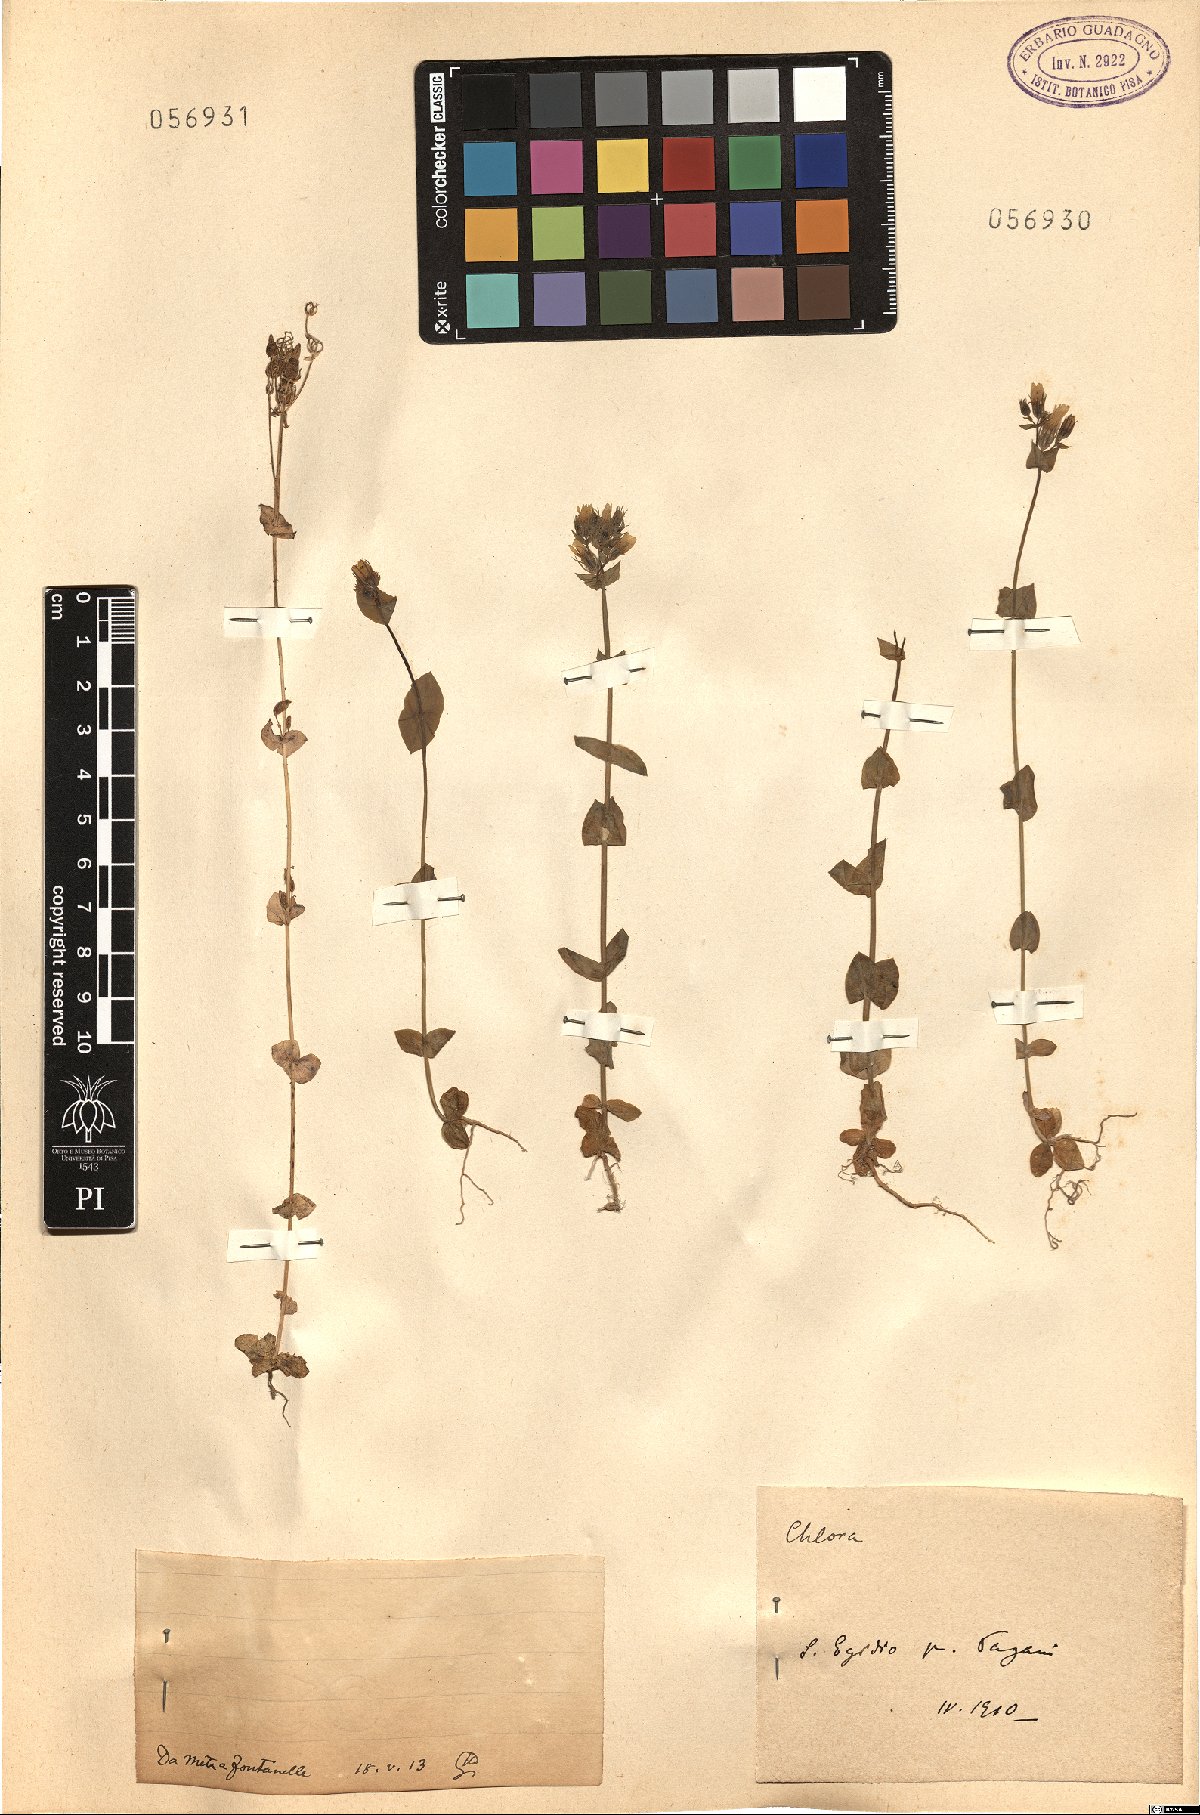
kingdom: Plantae
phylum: Tracheophyta
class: Magnoliopsida
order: Gentianales
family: Gentianaceae
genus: Blackstonia
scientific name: Blackstonia
